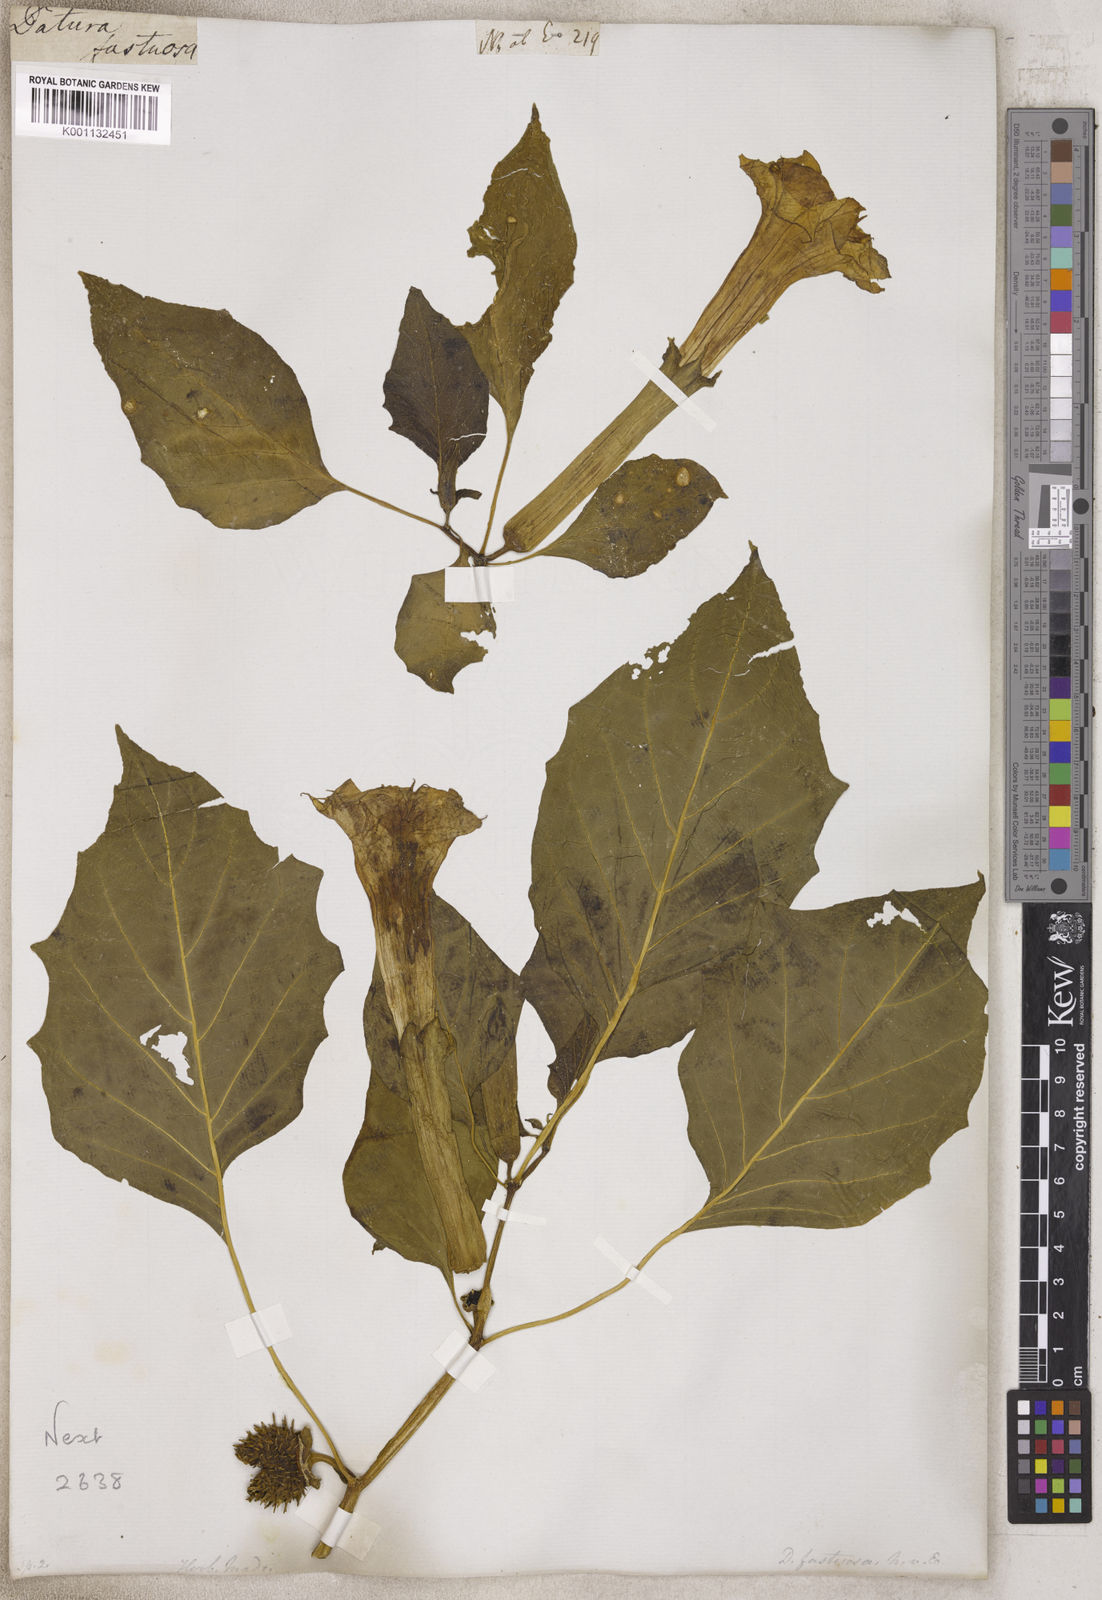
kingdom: Plantae
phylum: Tracheophyta
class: Magnoliopsida
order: Solanales
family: Solanaceae
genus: Datura
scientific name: Datura
